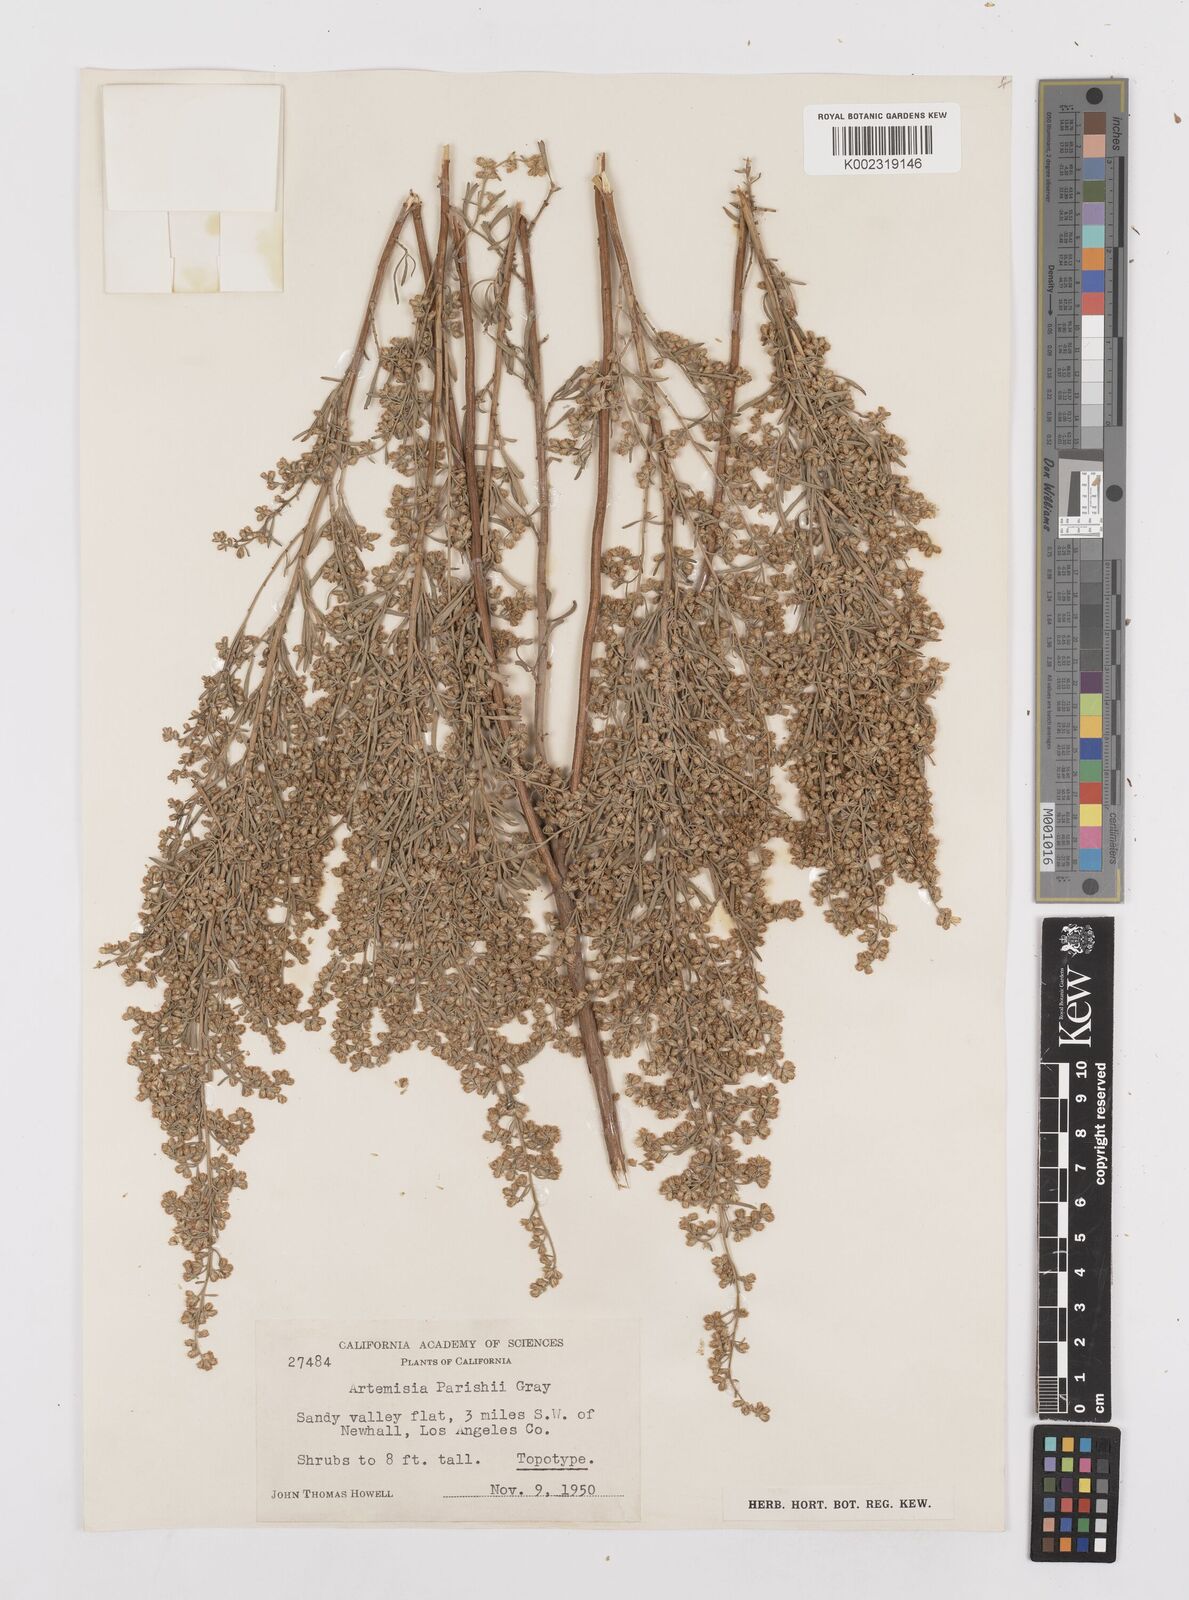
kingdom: Plantae
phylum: Tracheophyta
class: Magnoliopsida
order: Asterales
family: Asteraceae
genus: Artemisia
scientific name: Artemisia tridentata
